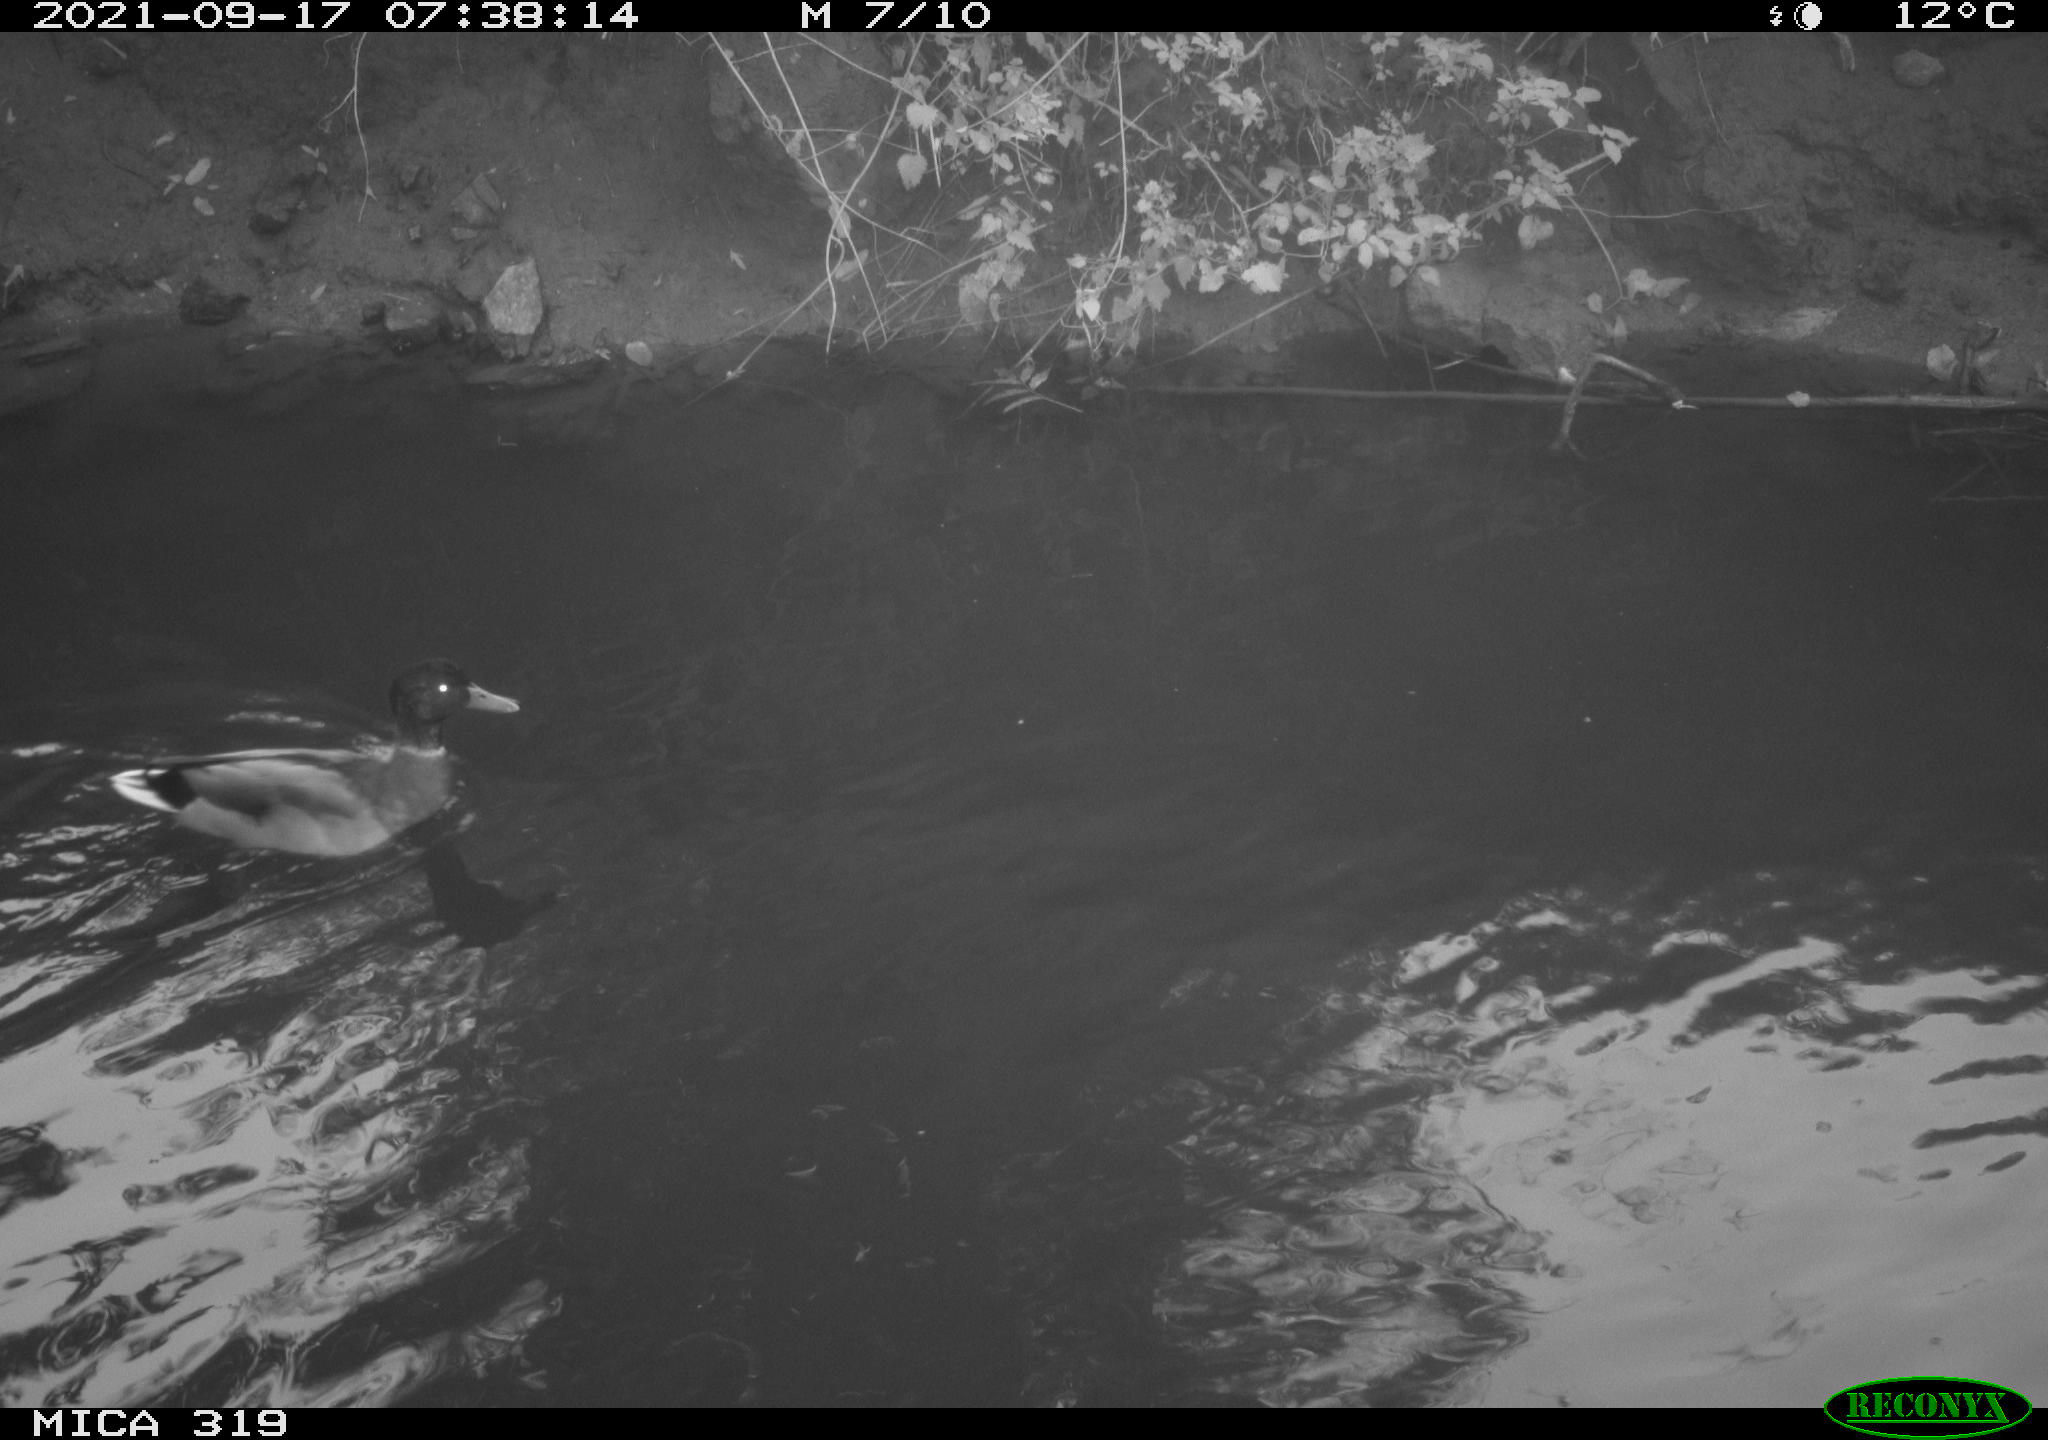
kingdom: Animalia
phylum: Chordata
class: Aves
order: Anseriformes
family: Anatidae
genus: Anas
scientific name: Anas platyrhynchos
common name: Mallard
